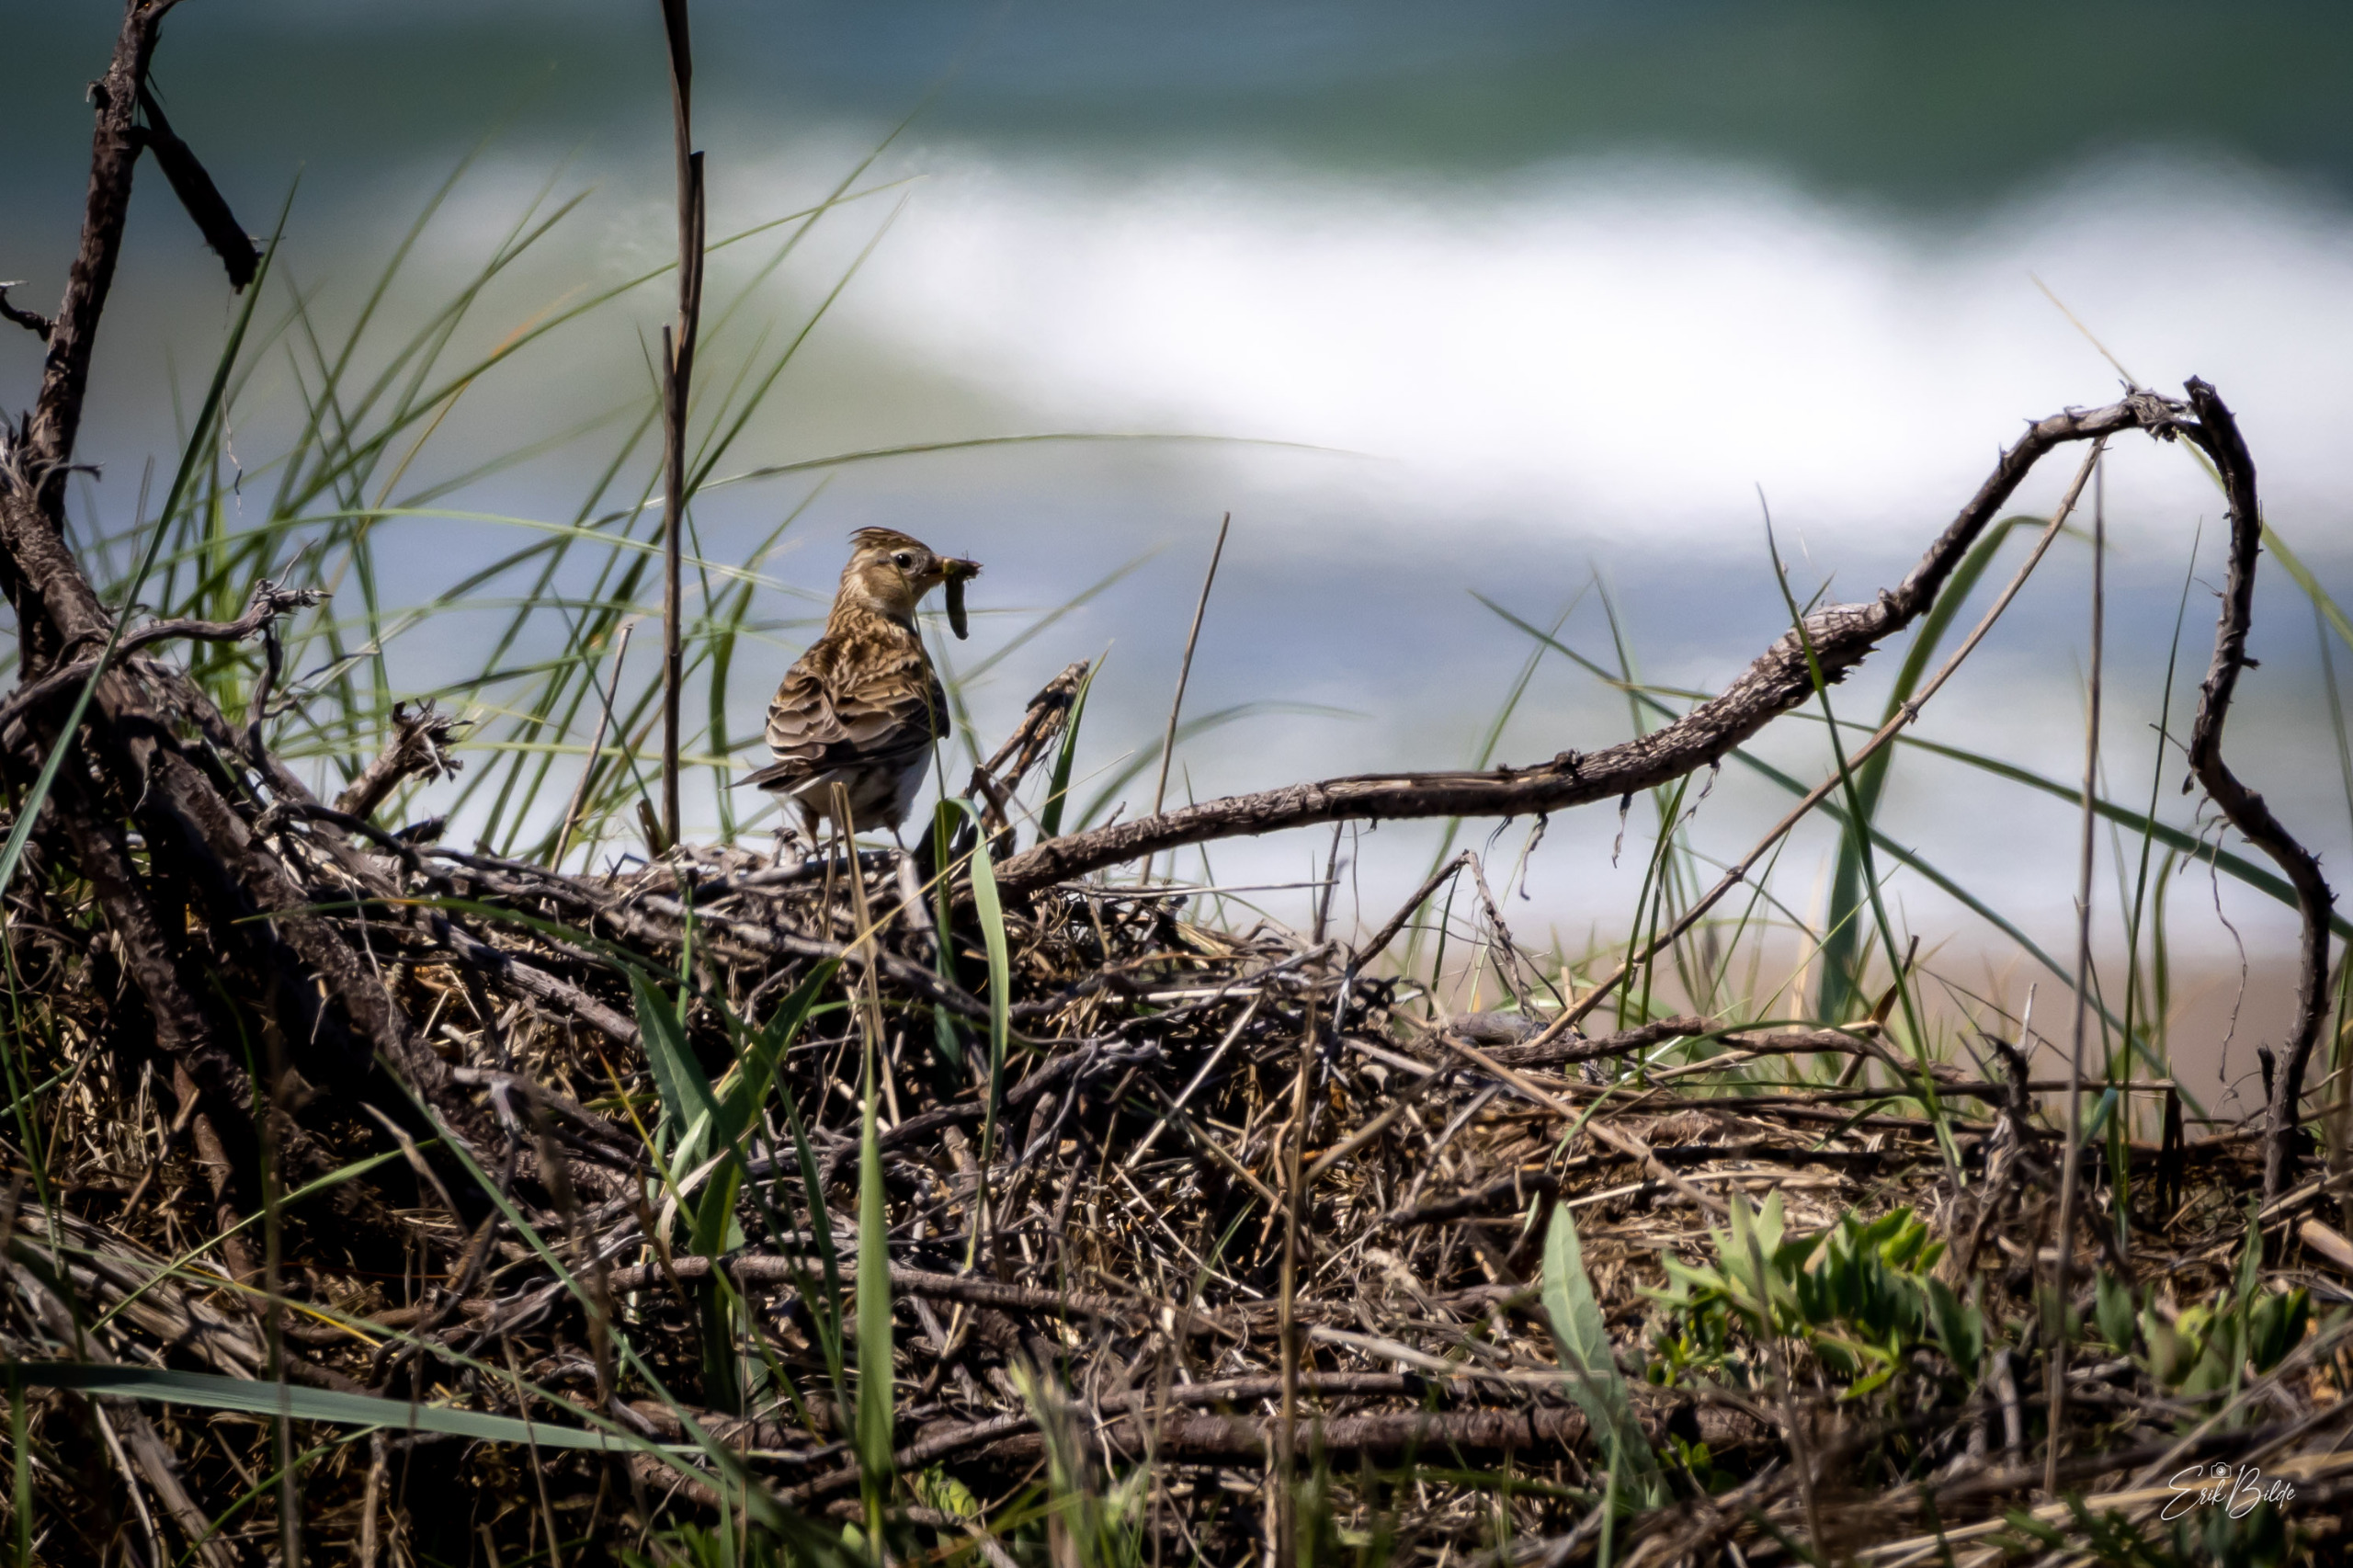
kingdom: Animalia
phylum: Chordata
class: Aves
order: Passeriformes
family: Alaudidae
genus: Alauda
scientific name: Alauda arvensis
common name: Sanglærke
